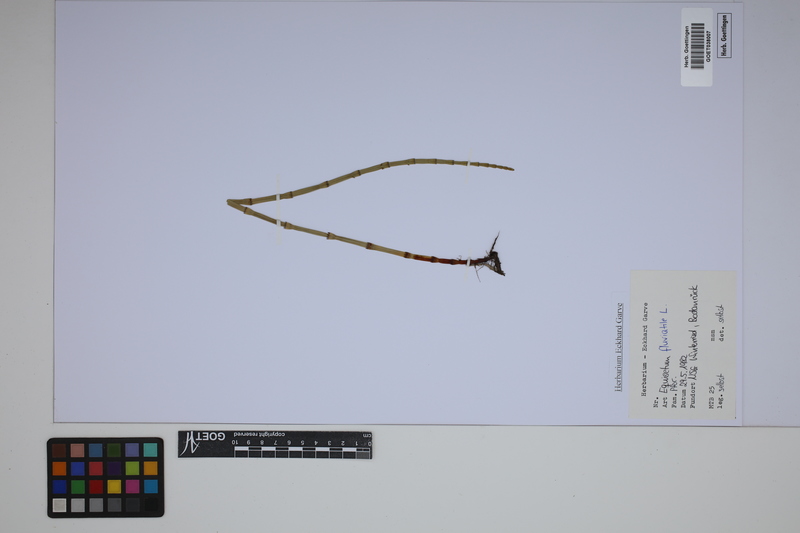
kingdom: Plantae
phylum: Tracheophyta
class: Polypodiopsida
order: Equisetales
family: Equisetaceae
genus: Equisetum
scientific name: Equisetum fluviatile
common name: Water horsetail
